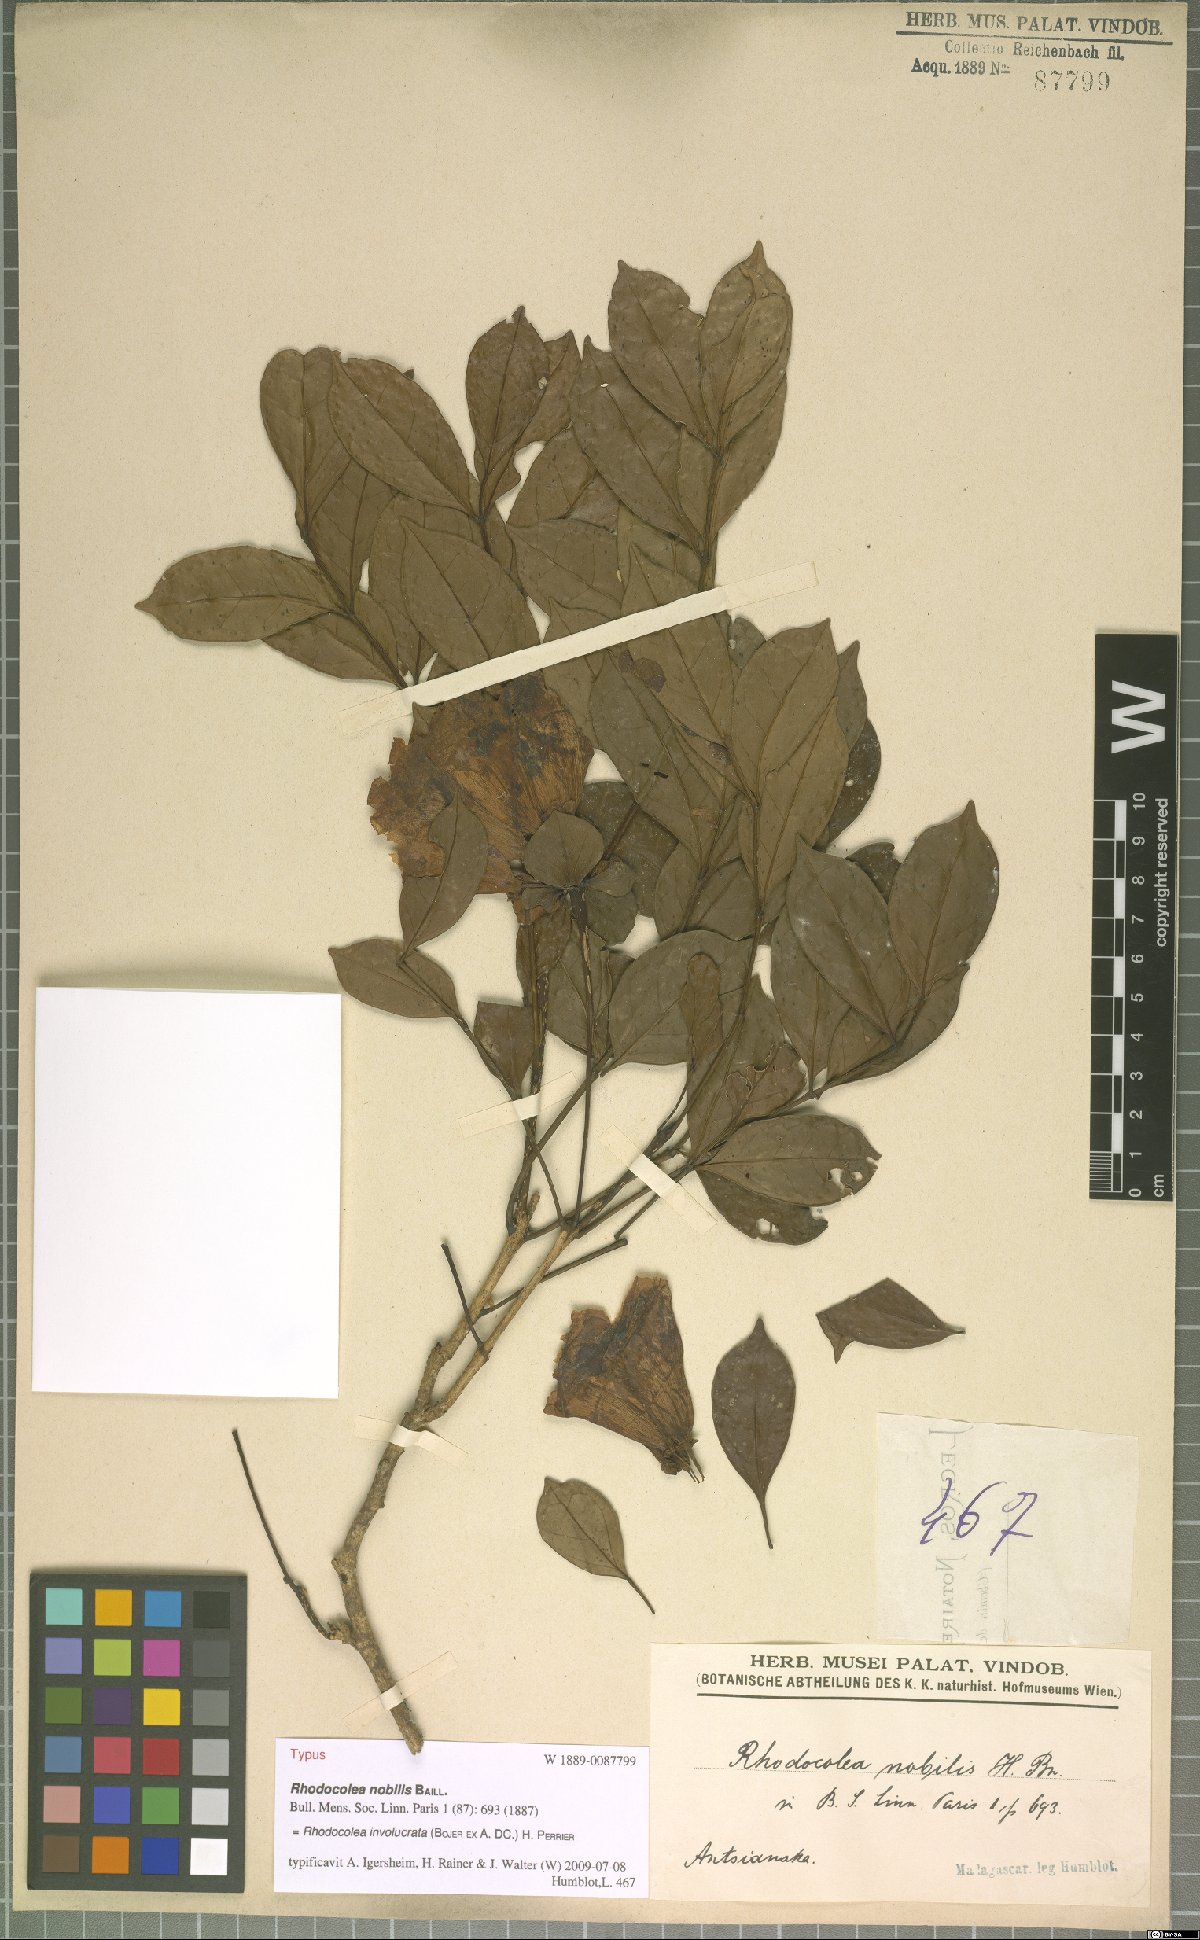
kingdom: Plantae
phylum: Tracheophyta
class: Magnoliopsida
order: Lamiales
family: Bignoniaceae
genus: Rhodocolea
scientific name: Rhodocolea involucrata
